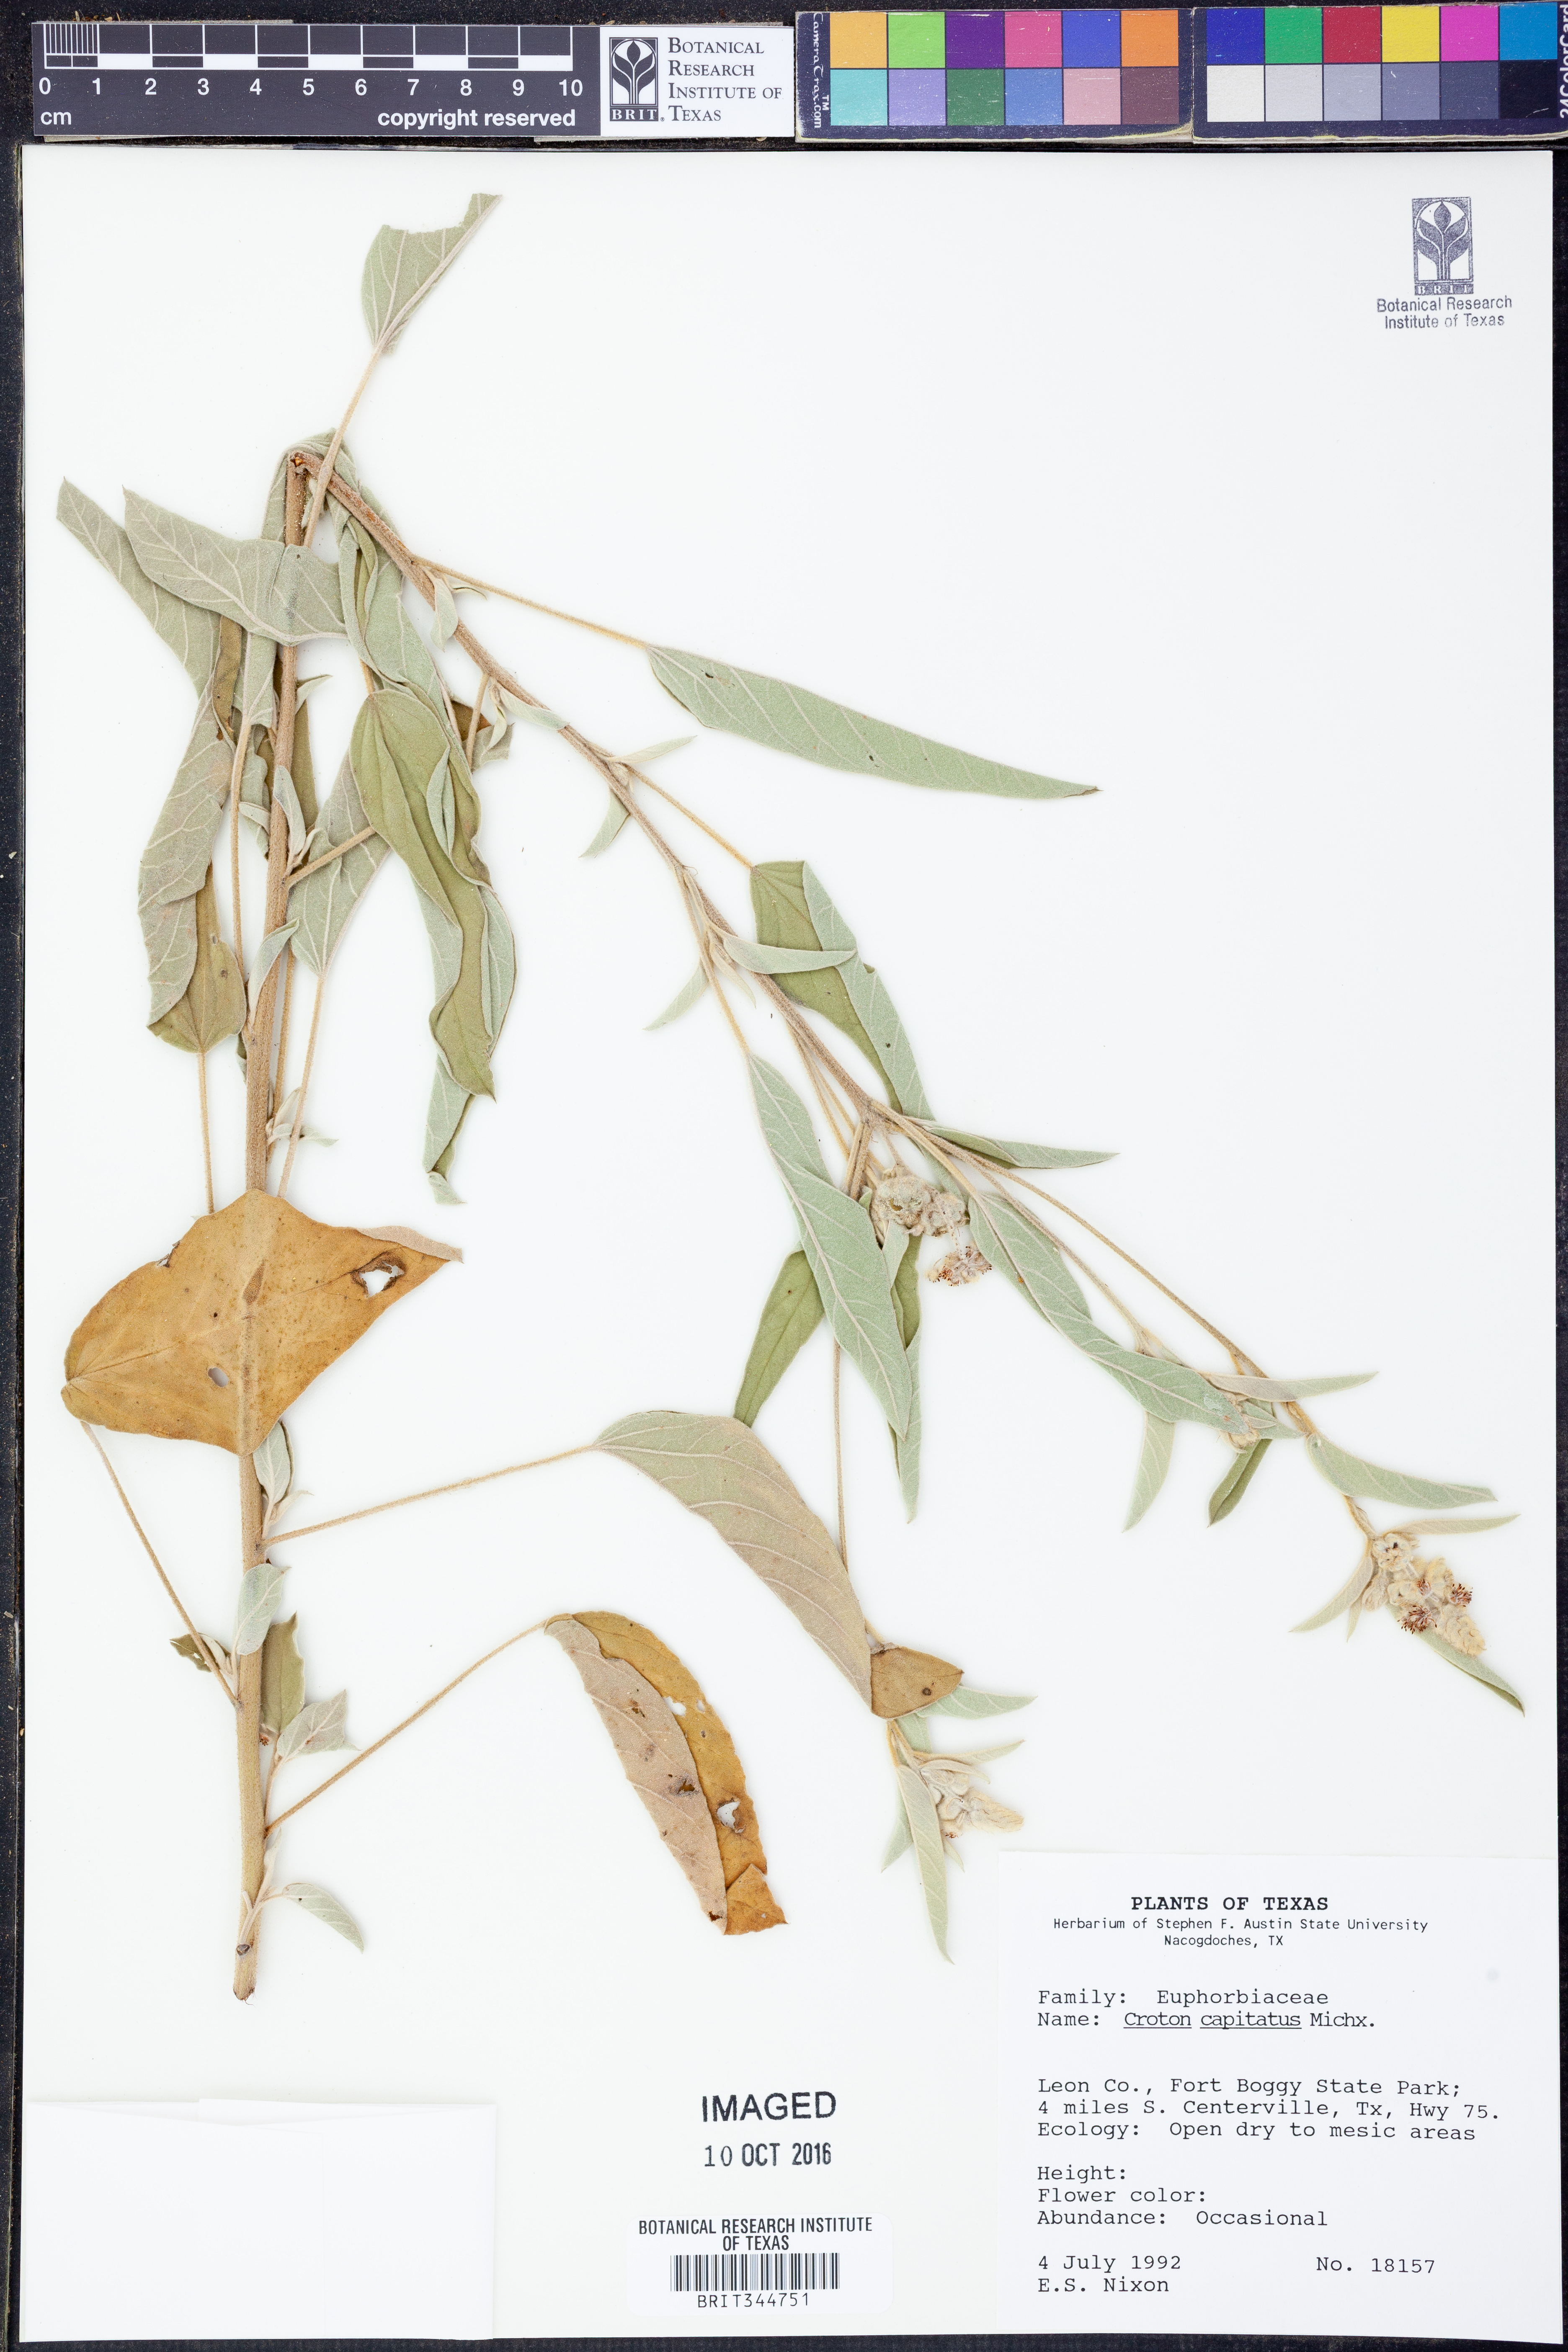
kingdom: Plantae
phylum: Tracheophyta
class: Magnoliopsida
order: Malpighiales
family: Euphorbiaceae
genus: Croton
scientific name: Croton capitatus
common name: Woolly croton
